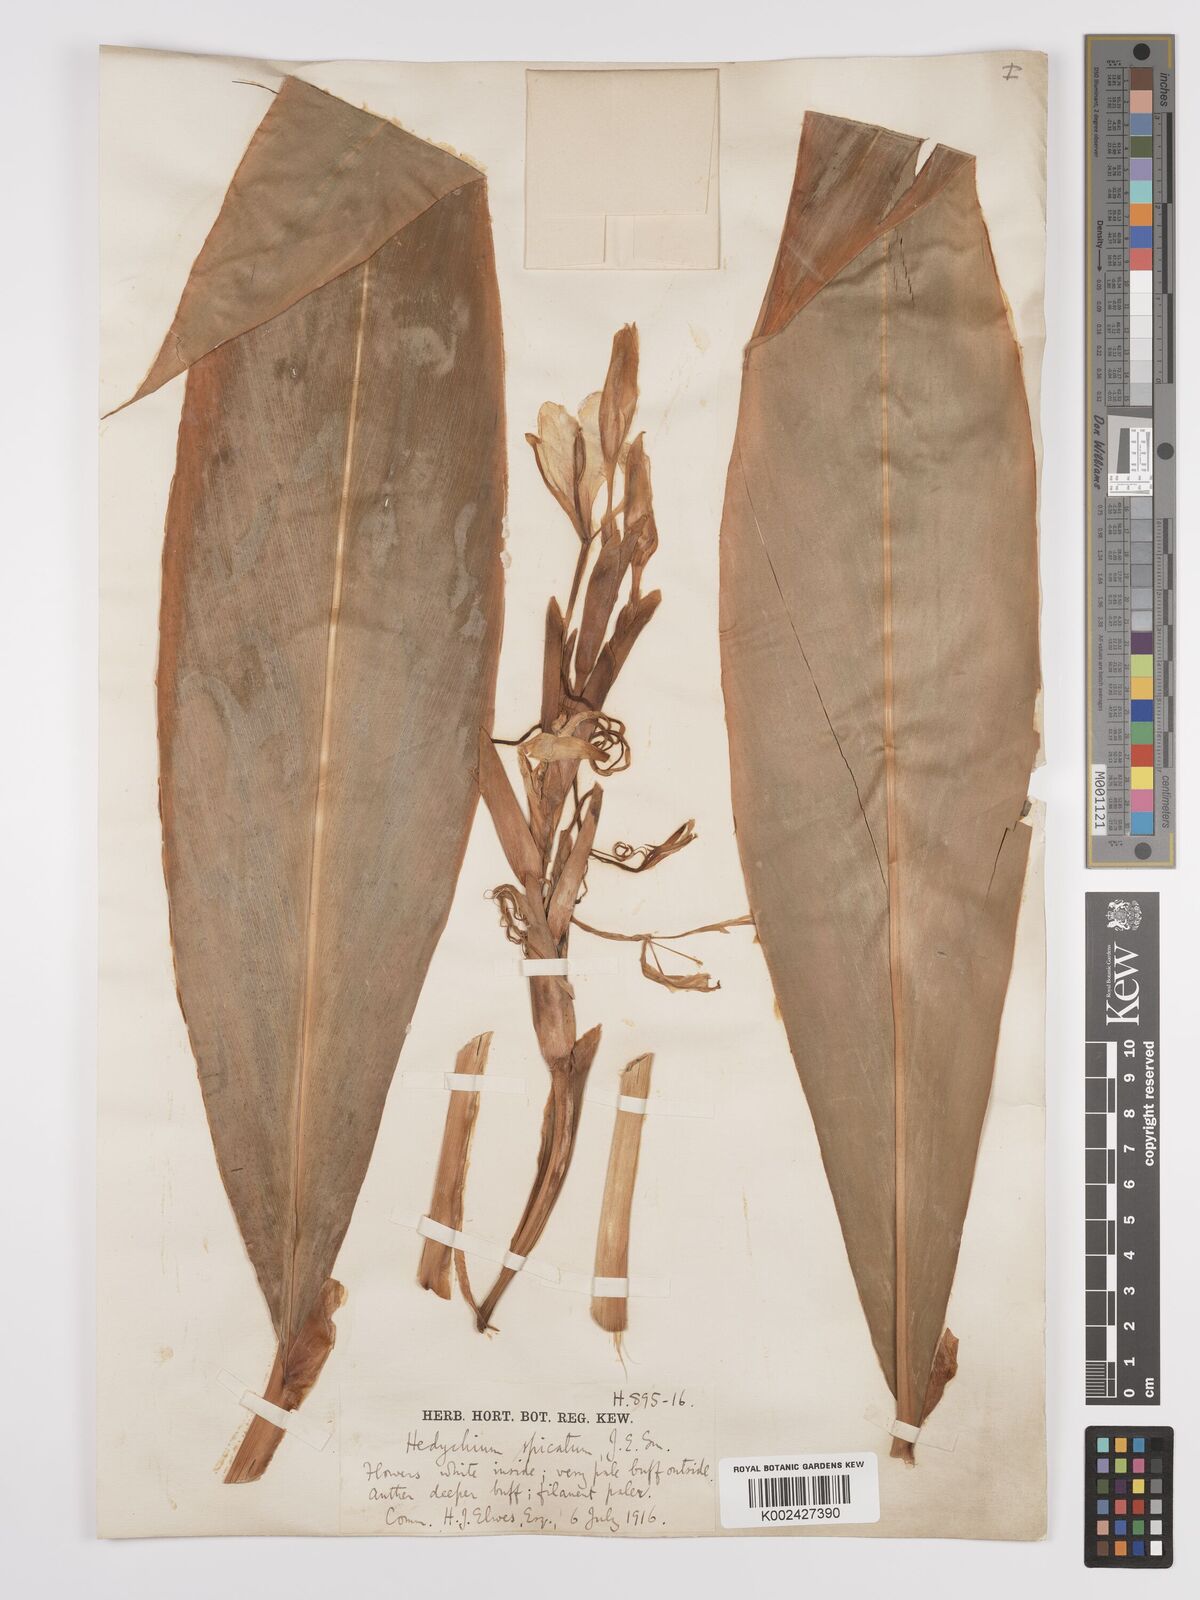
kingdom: Plantae
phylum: Tracheophyta
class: Liliopsida
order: Zingiberales
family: Zingiberaceae
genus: Hedychium
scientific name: Hedychium spicatum
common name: Spiked ginger-lily
